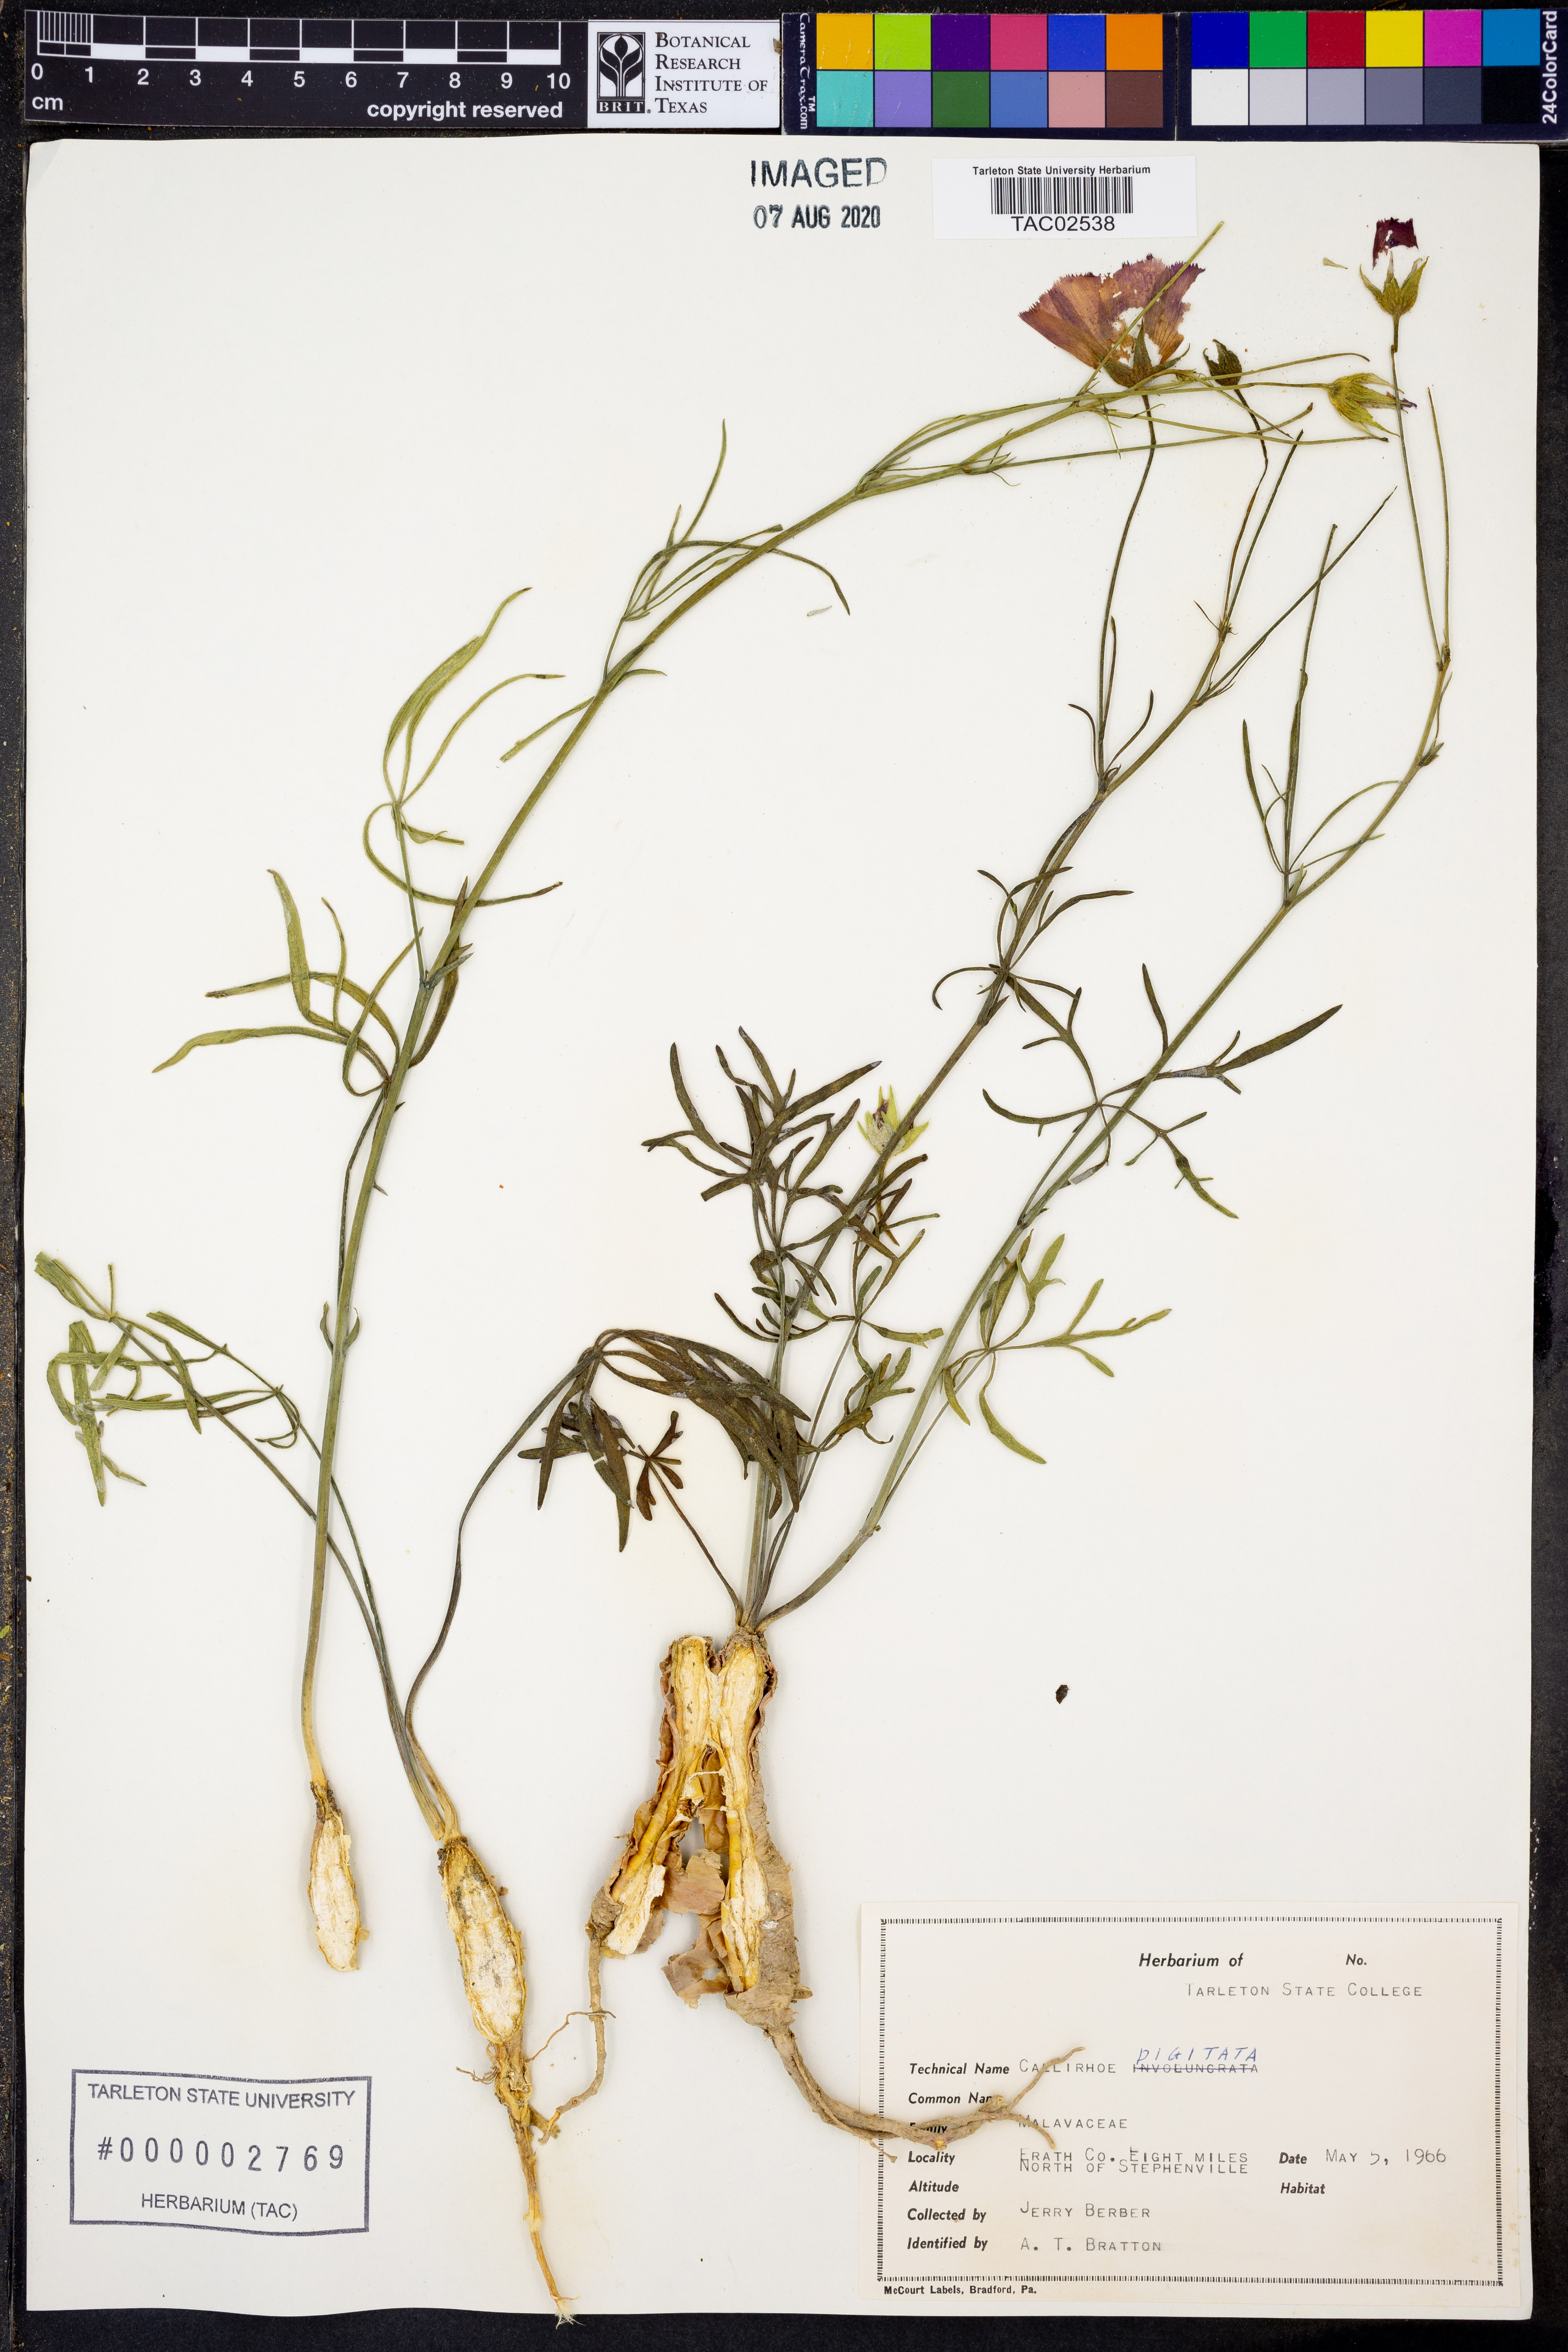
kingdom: Plantae
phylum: Tracheophyta
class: Magnoliopsida
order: Malvales
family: Malvaceae
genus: Callirhoe
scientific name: Callirhoe digitata
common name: Finger poppy-mallow
